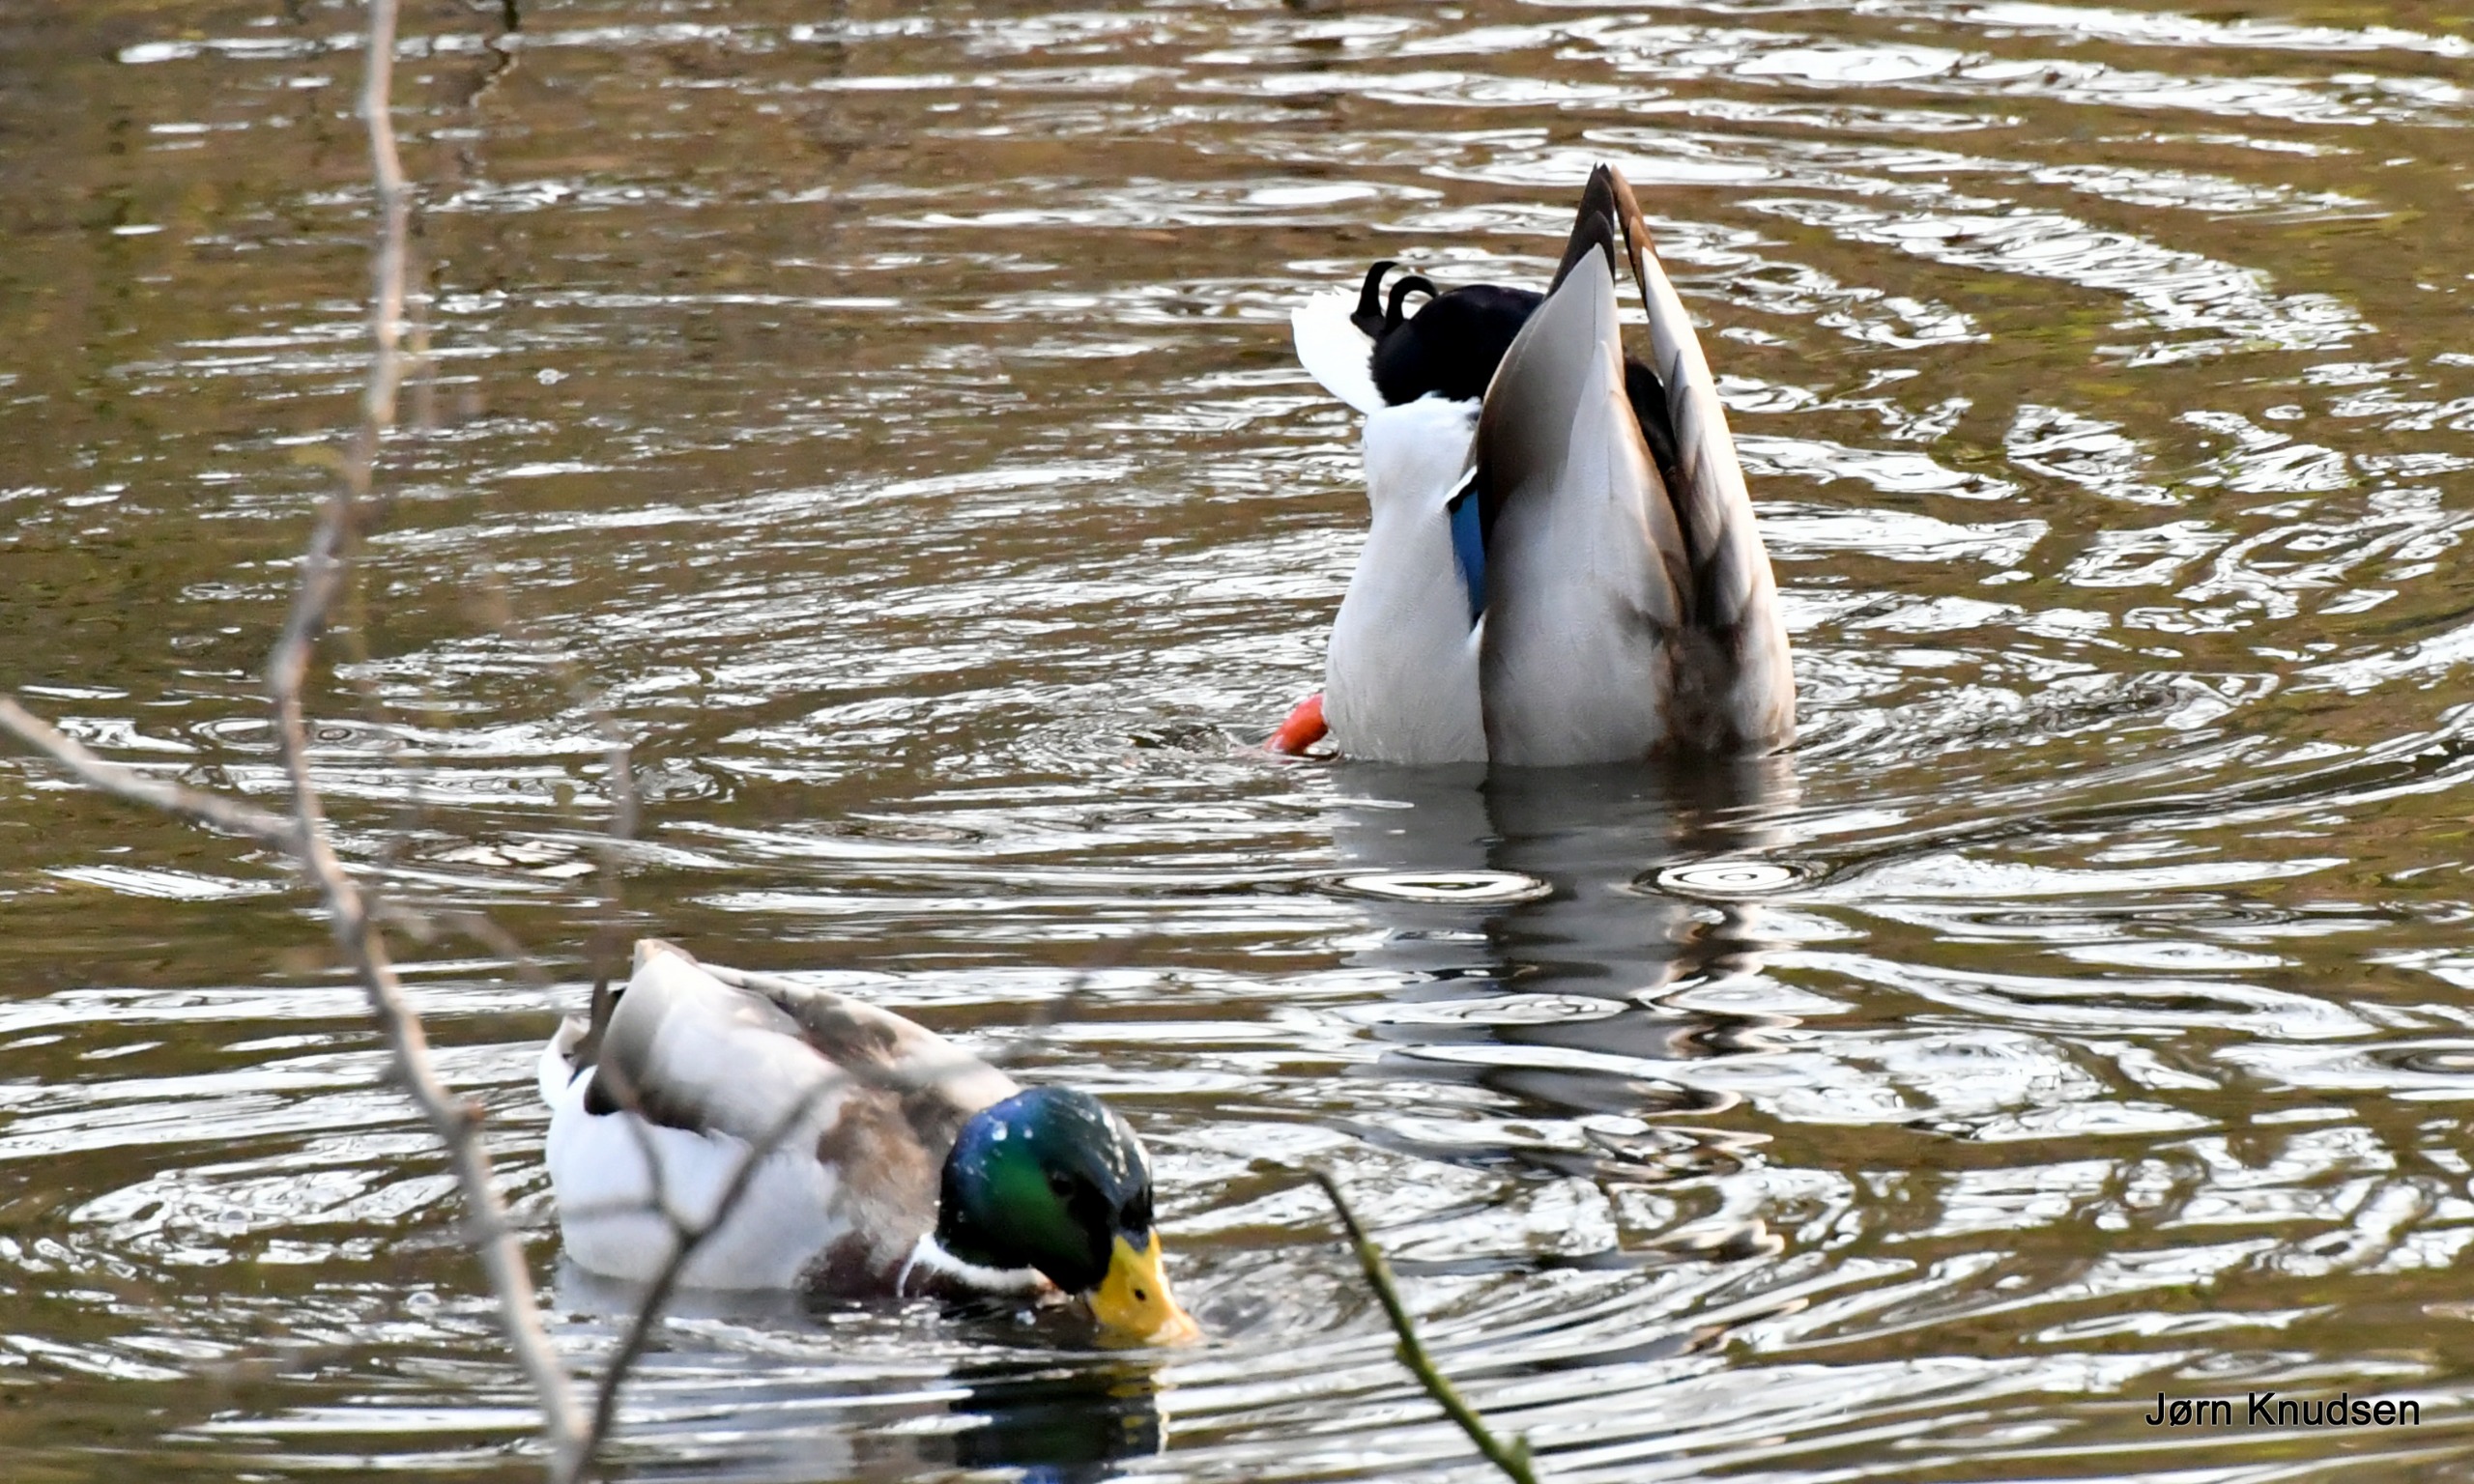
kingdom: Animalia
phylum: Chordata
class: Aves
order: Anseriformes
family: Anatidae
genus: Anas
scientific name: Anas platyrhynchos
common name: Gråand
